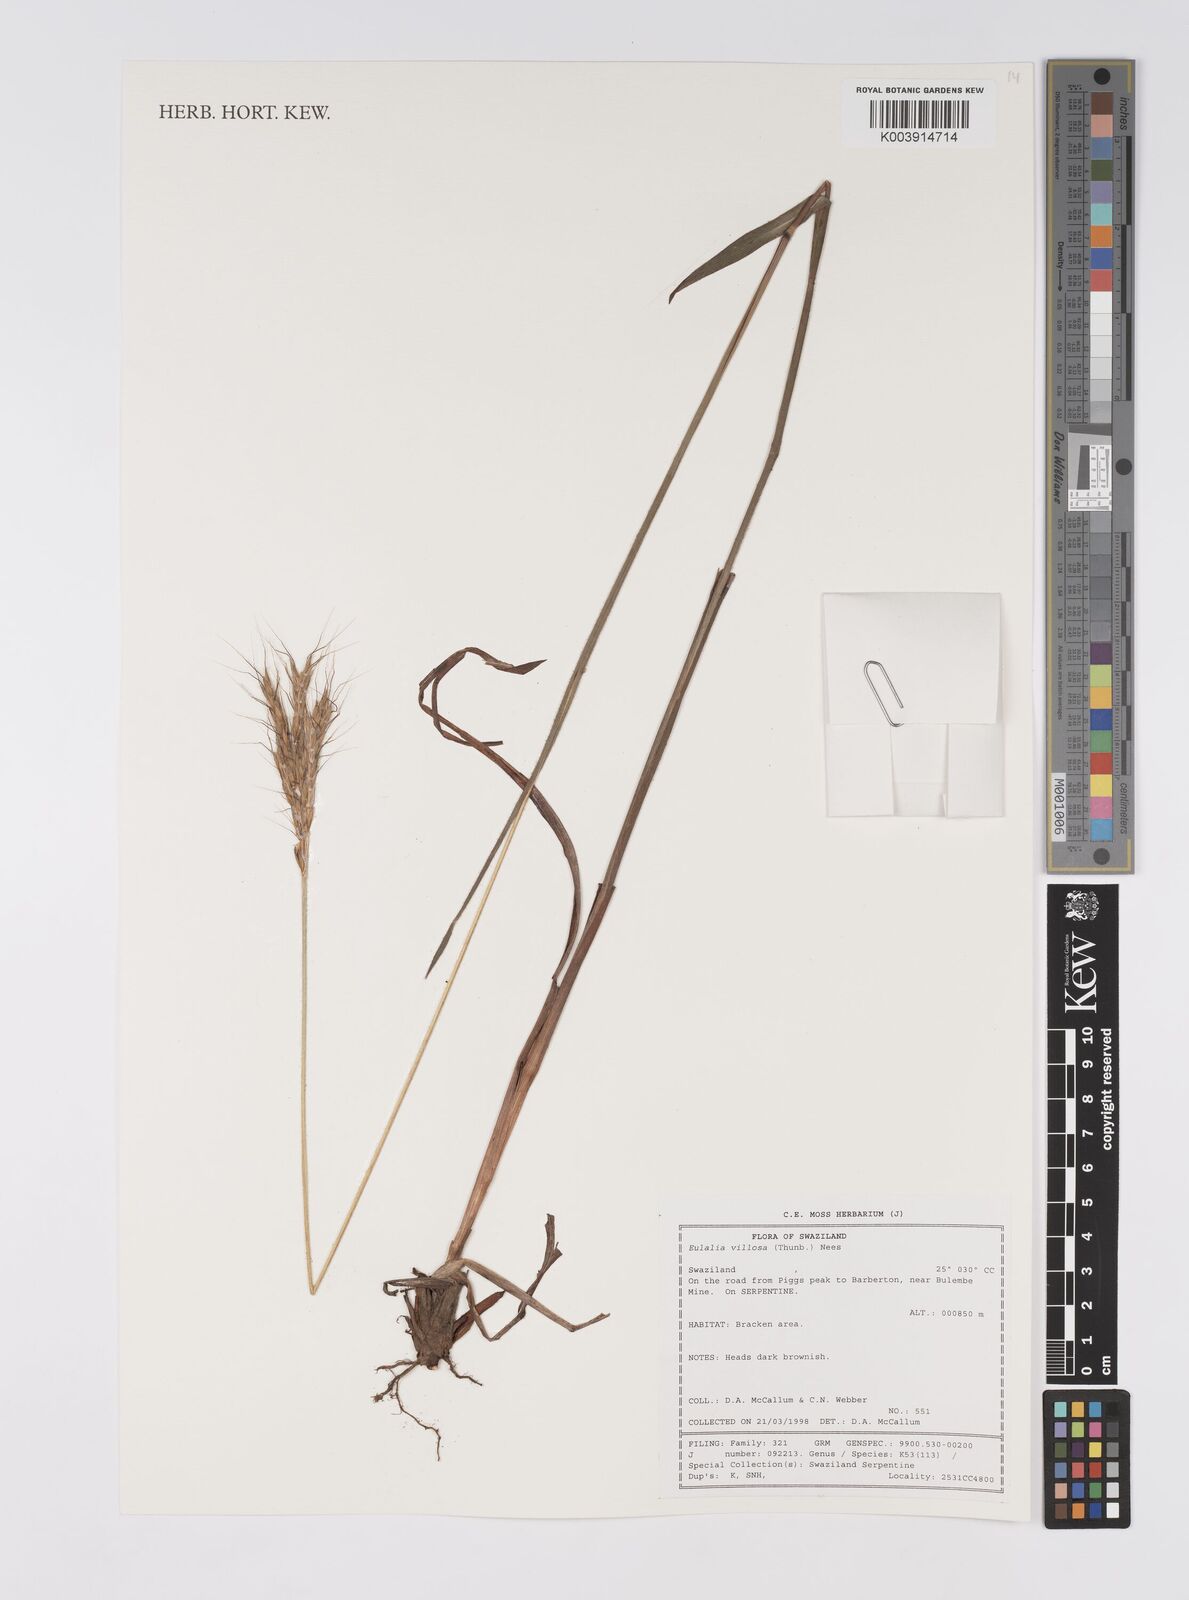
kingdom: Plantae
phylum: Tracheophyta
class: Liliopsida
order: Poales
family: Poaceae
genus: Eulalia
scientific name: Eulalia villosa
